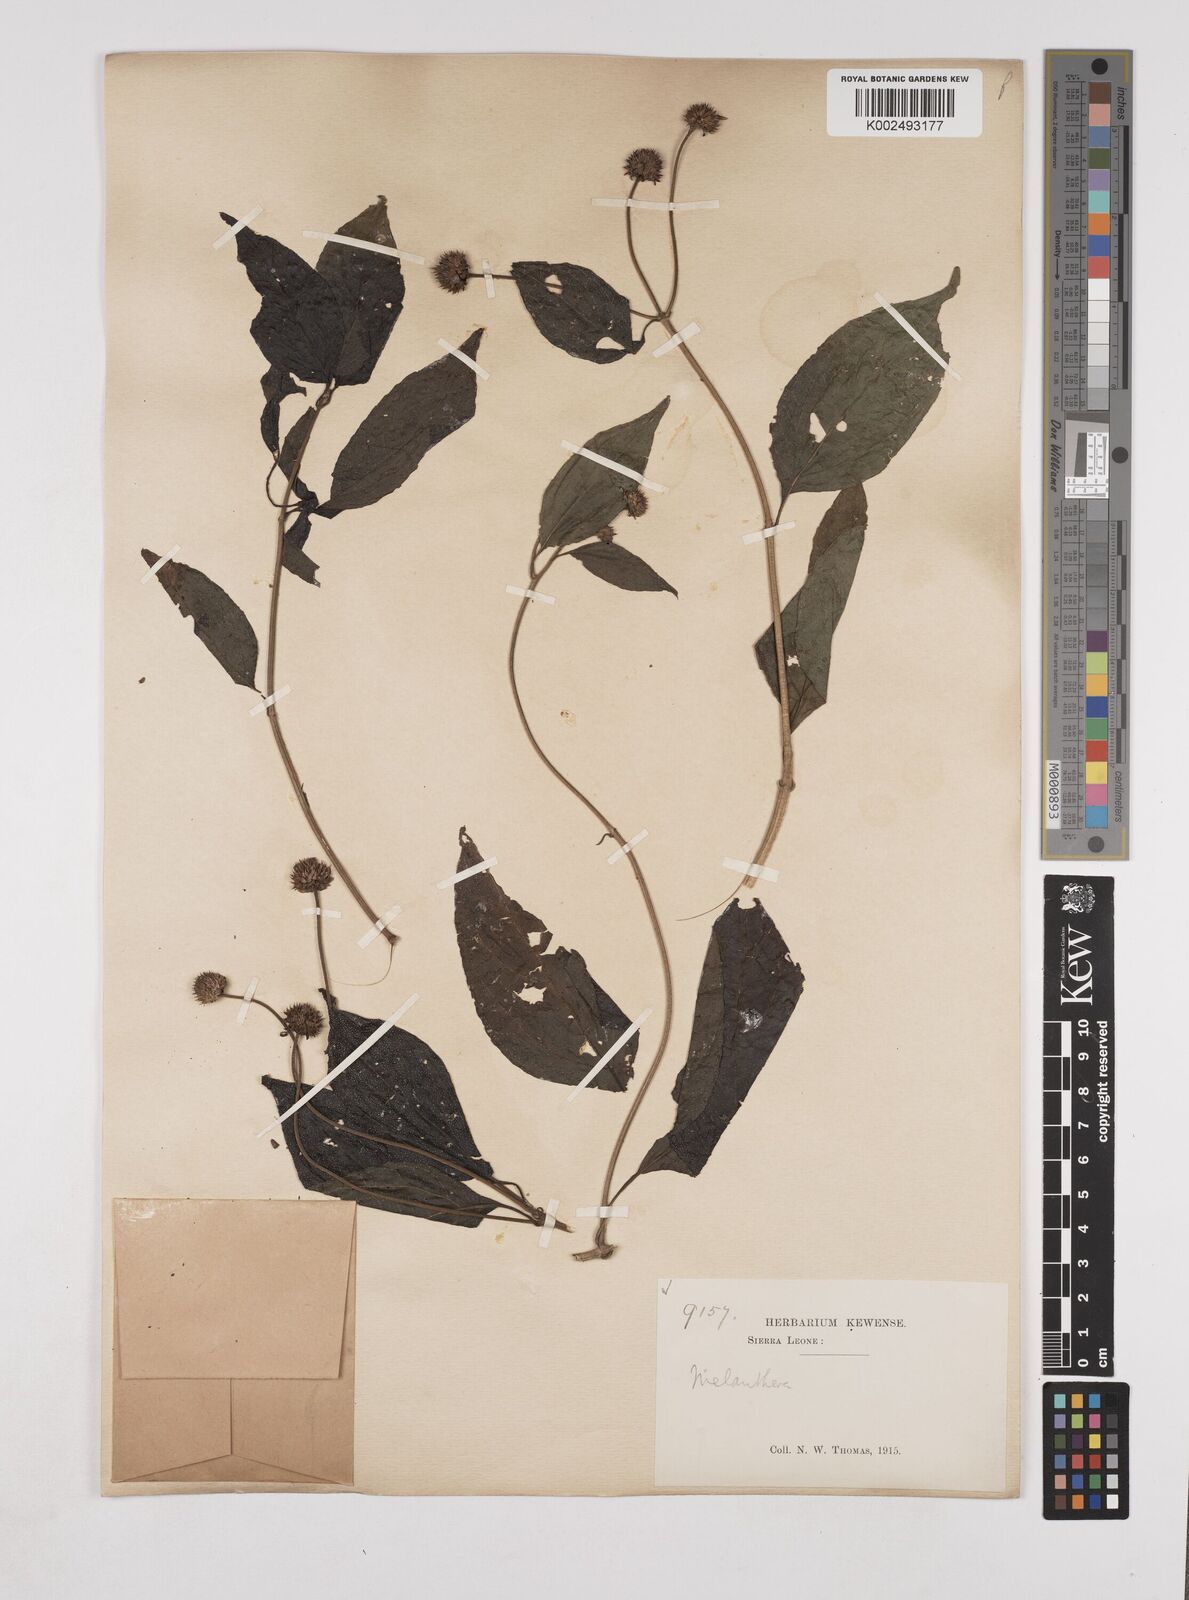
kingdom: Plantae
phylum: Tracheophyta
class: Magnoliopsida
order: Asterales
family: Asteraceae
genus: Lipotriche
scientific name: Lipotriche scandens
